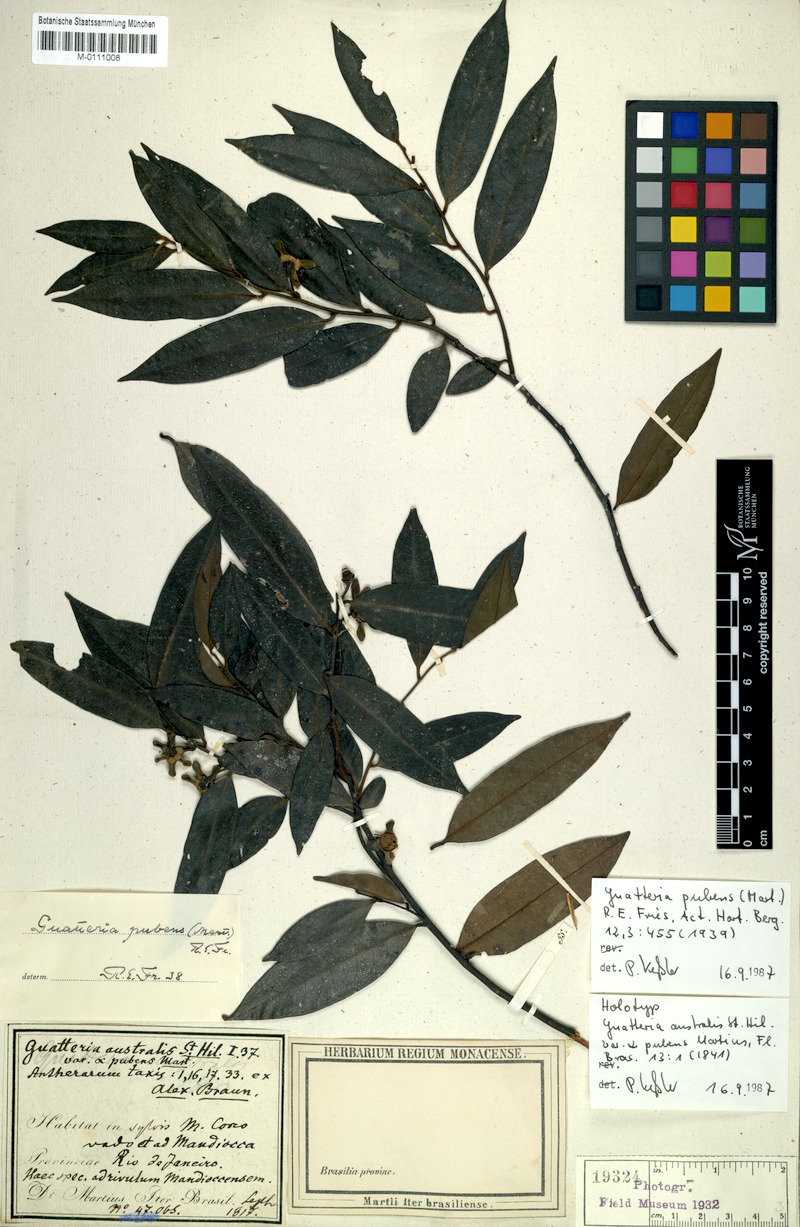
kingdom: Plantae
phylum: Tracheophyta
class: Magnoliopsida
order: Magnoliales
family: Annonaceae
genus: Guatteria
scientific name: Guatteria sellowiana
